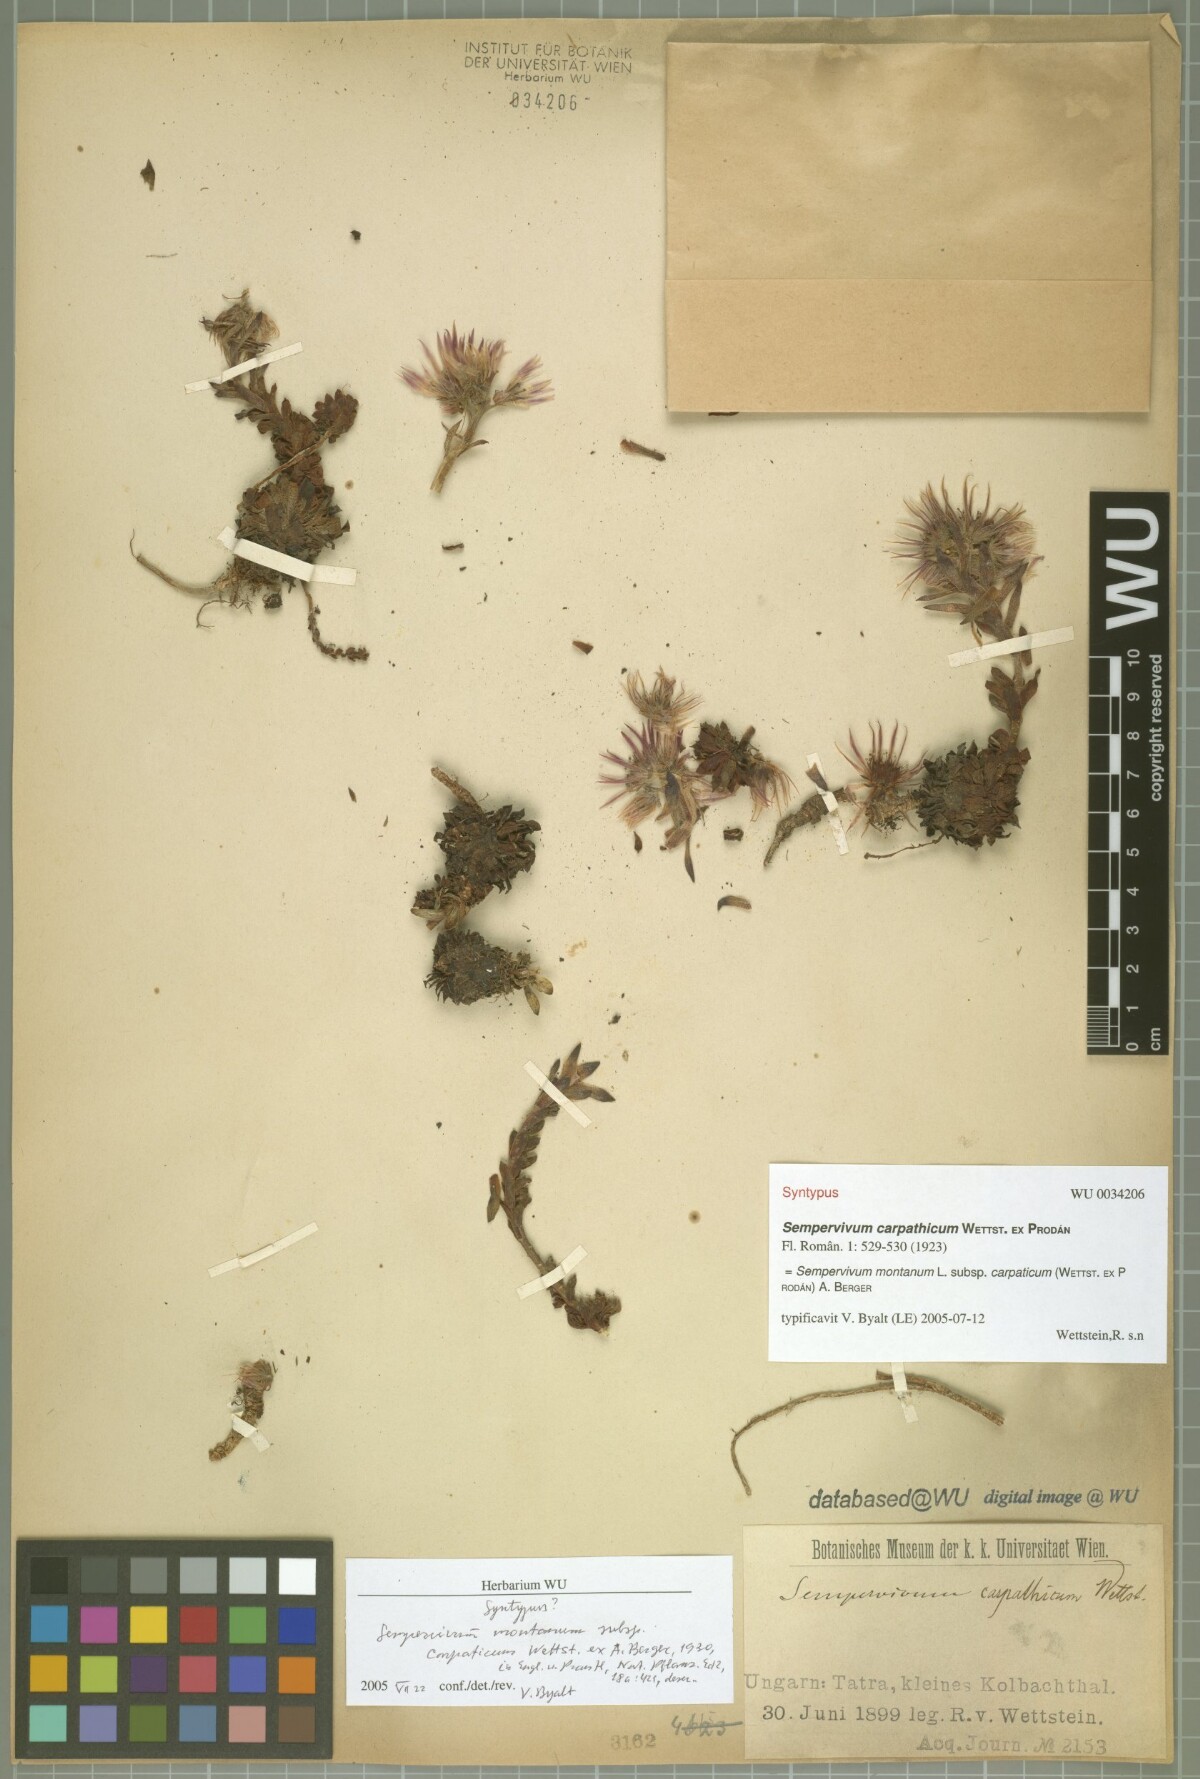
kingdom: Plantae
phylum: Tracheophyta
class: Magnoliopsida
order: Saxifragales
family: Crassulaceae
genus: Sempervivum
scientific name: Sempervivum montanum
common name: Mountain house-leek
